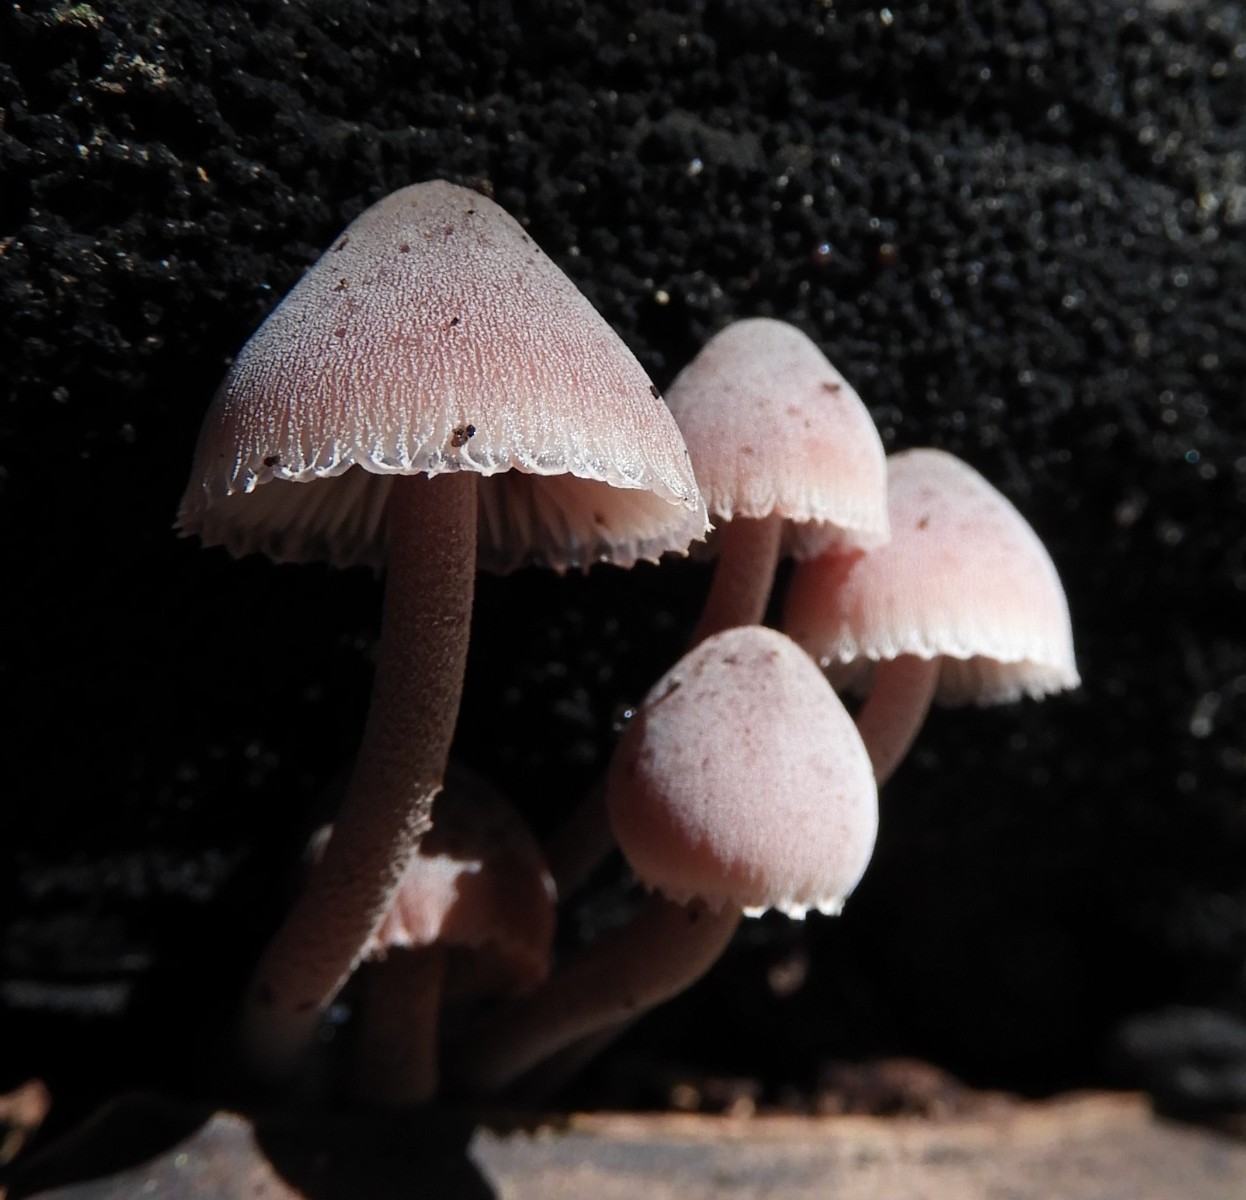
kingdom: Fungi
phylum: Basidiomycota
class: Agaricomycetes
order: Agaricales
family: Mycenaceae
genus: Mycena
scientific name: Mycena haematopus
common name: blødende huesvamp
